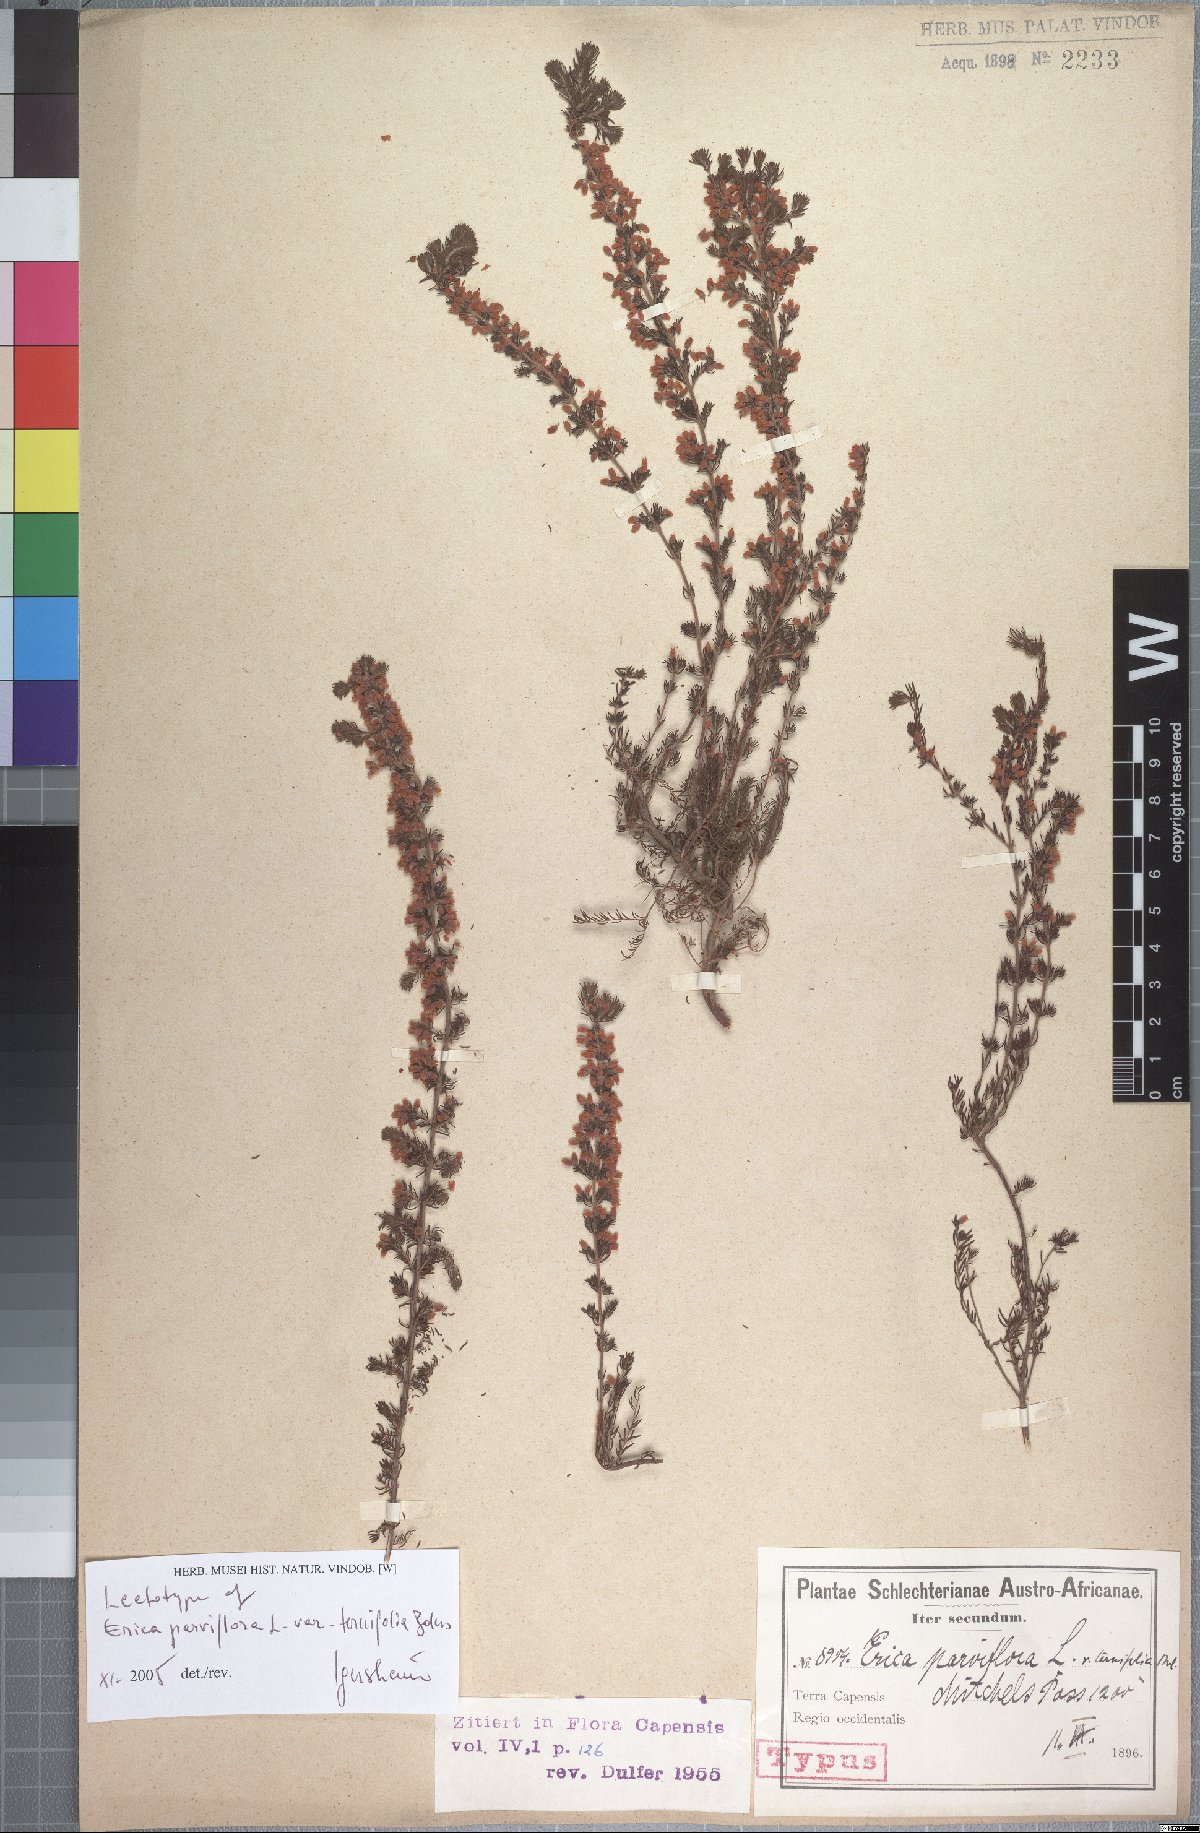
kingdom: Plantae
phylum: Tracheophyta
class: Magnoliopsida
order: Ericales
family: Ericaceae
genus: Erica
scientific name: Erica parviflora
